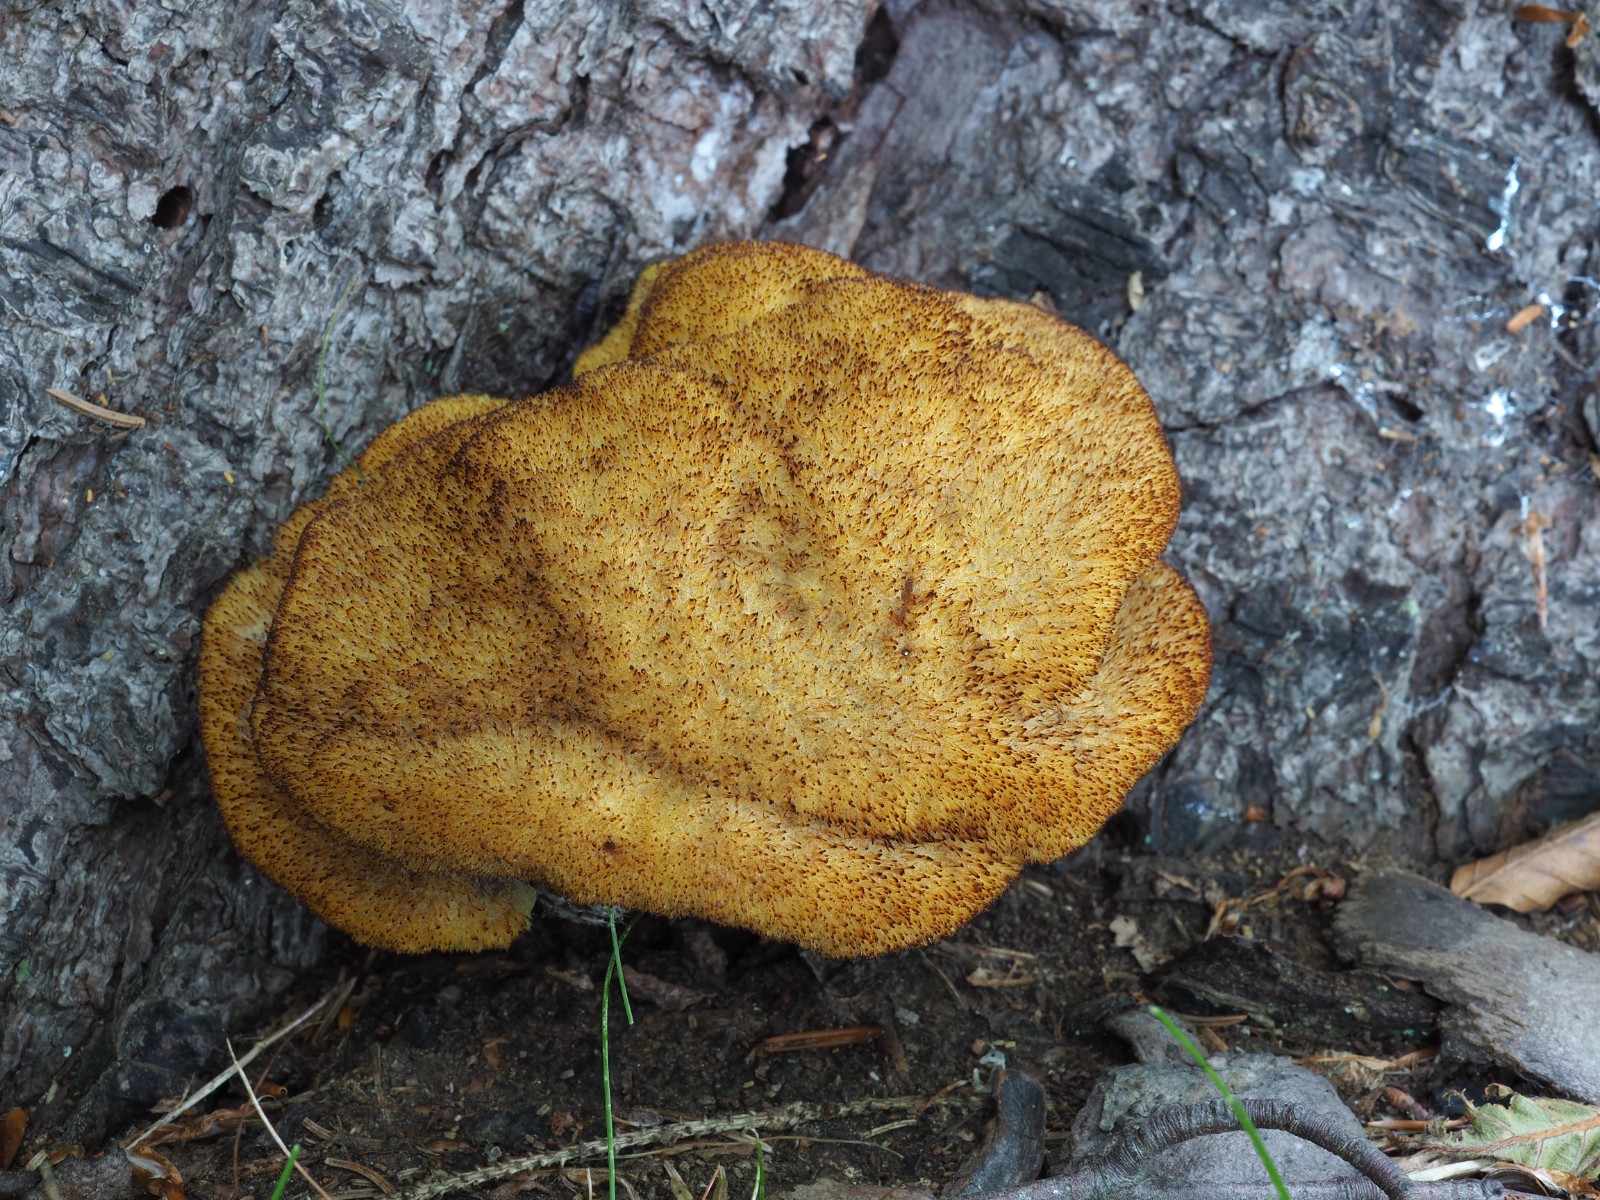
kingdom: Fungi
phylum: Basidiomycota
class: Agaricomycetes
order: Polyporales
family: Laetiporaceae
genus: Phaeolus
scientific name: Phaeolus schweinitzii
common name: brunporesvamp
